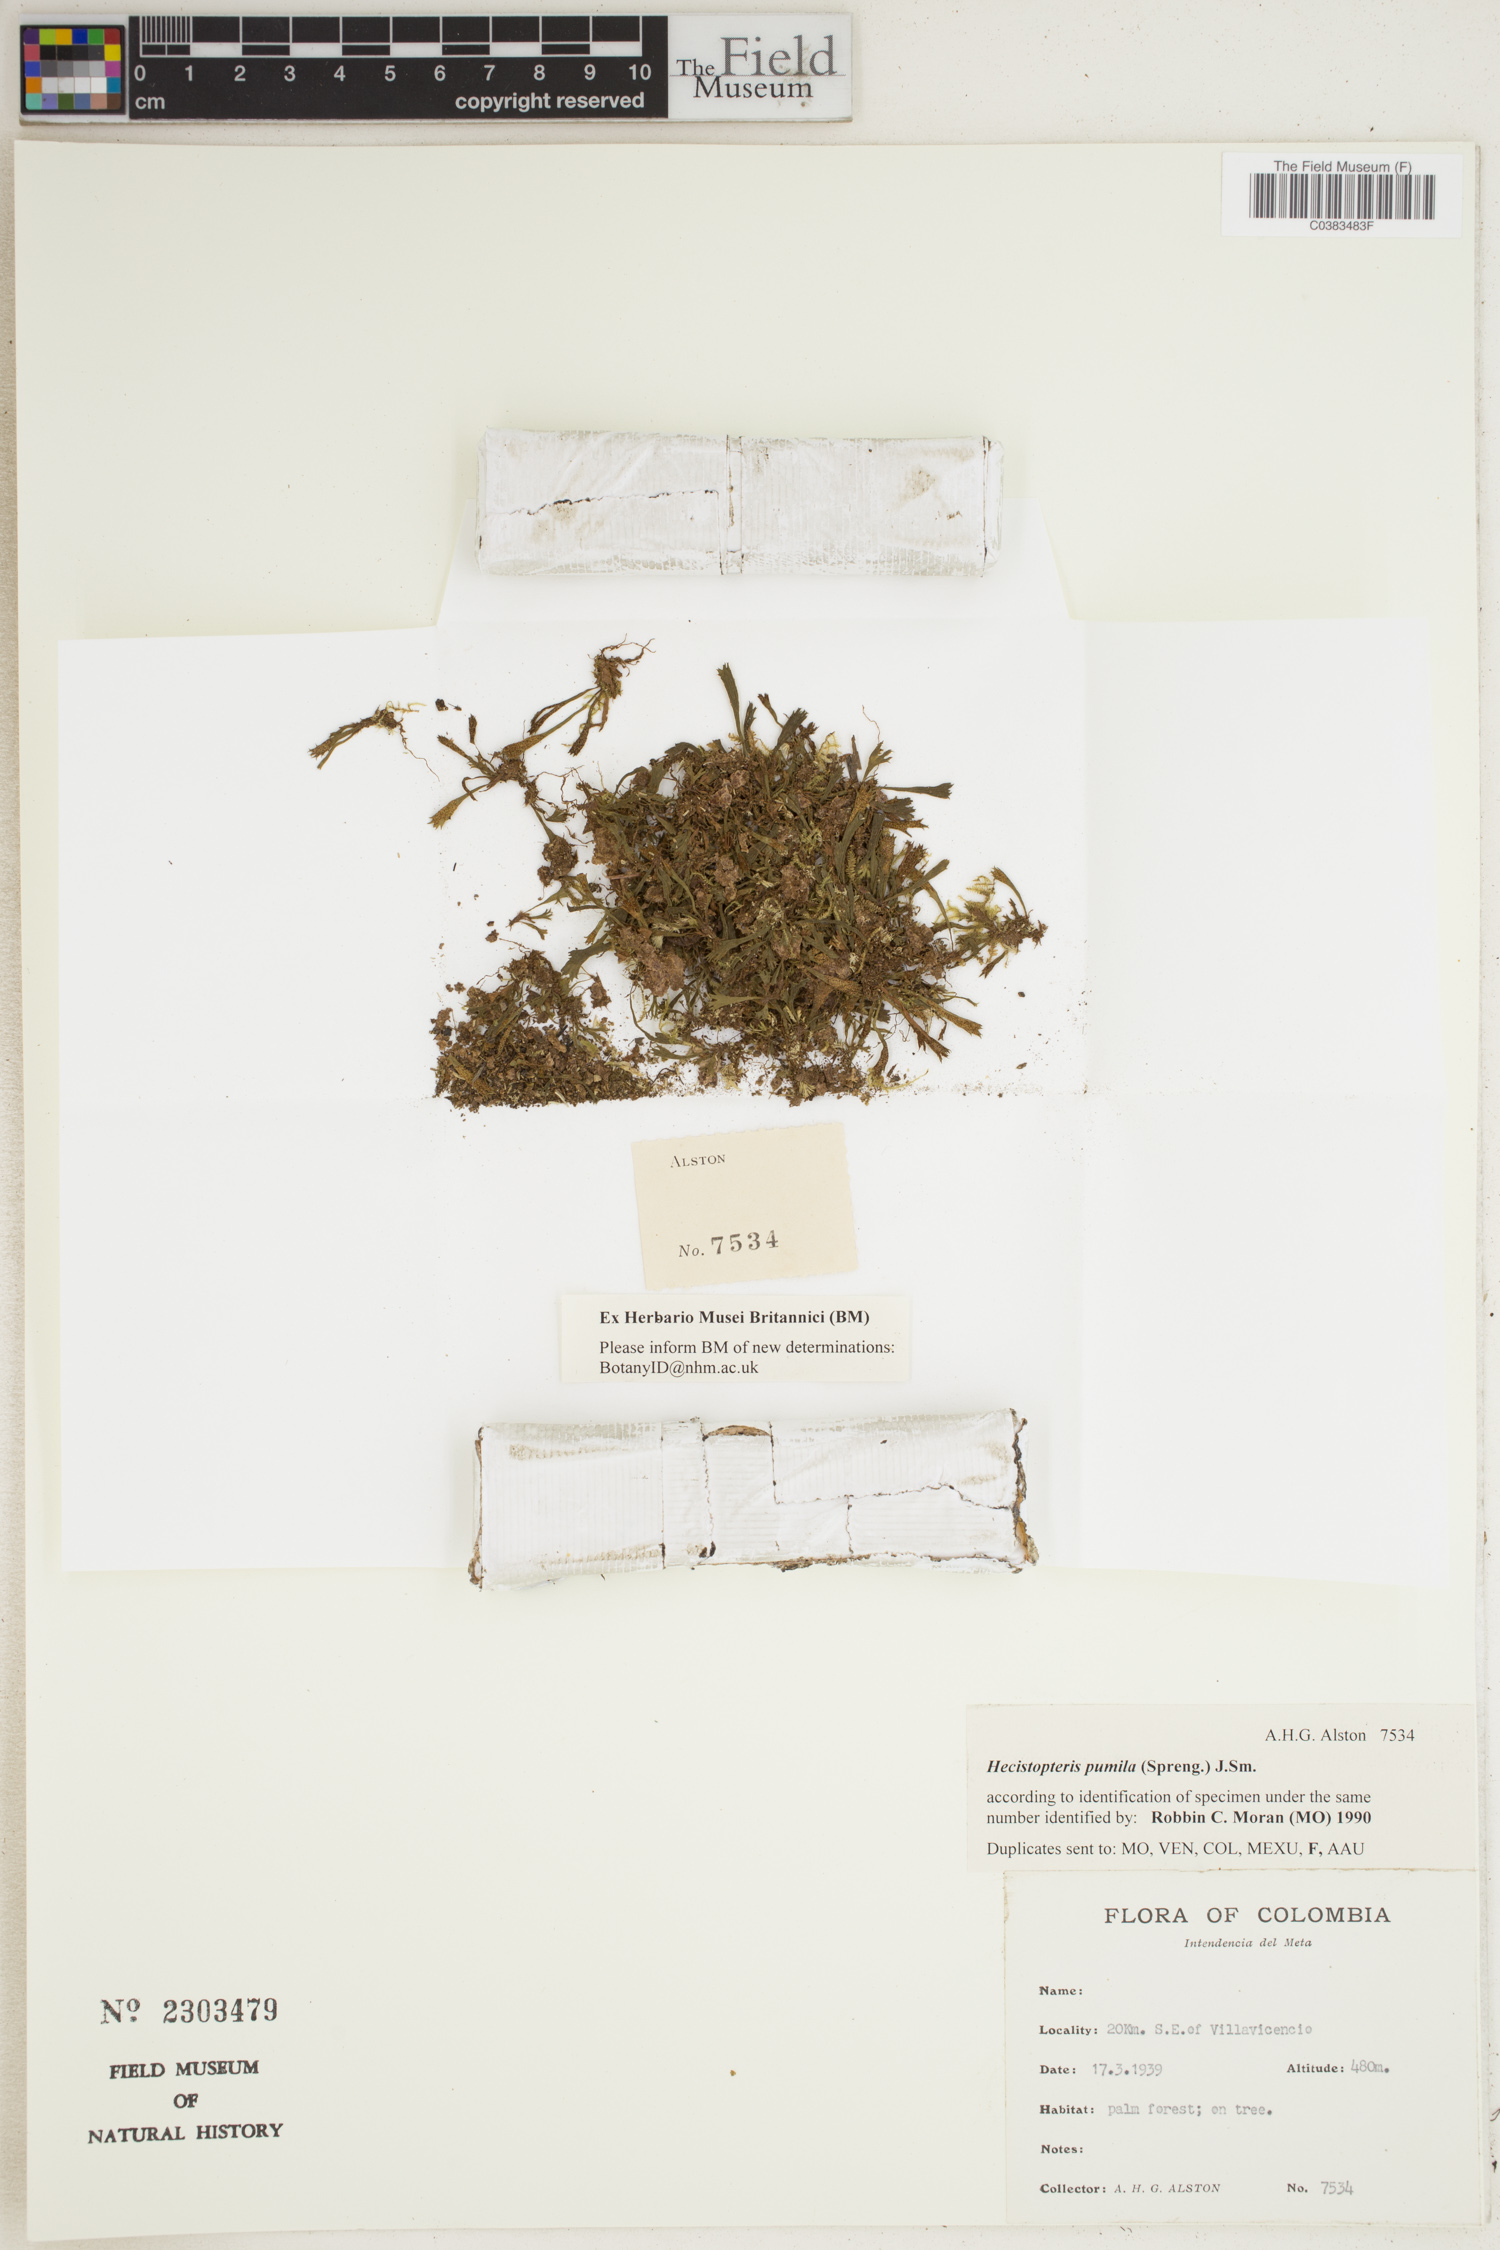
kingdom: Plantae
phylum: Tracheophyta
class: Polypodiopsida
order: Polypodiales
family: Pteridaceae
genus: Hecistopteris
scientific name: Hecistopteris pumila
